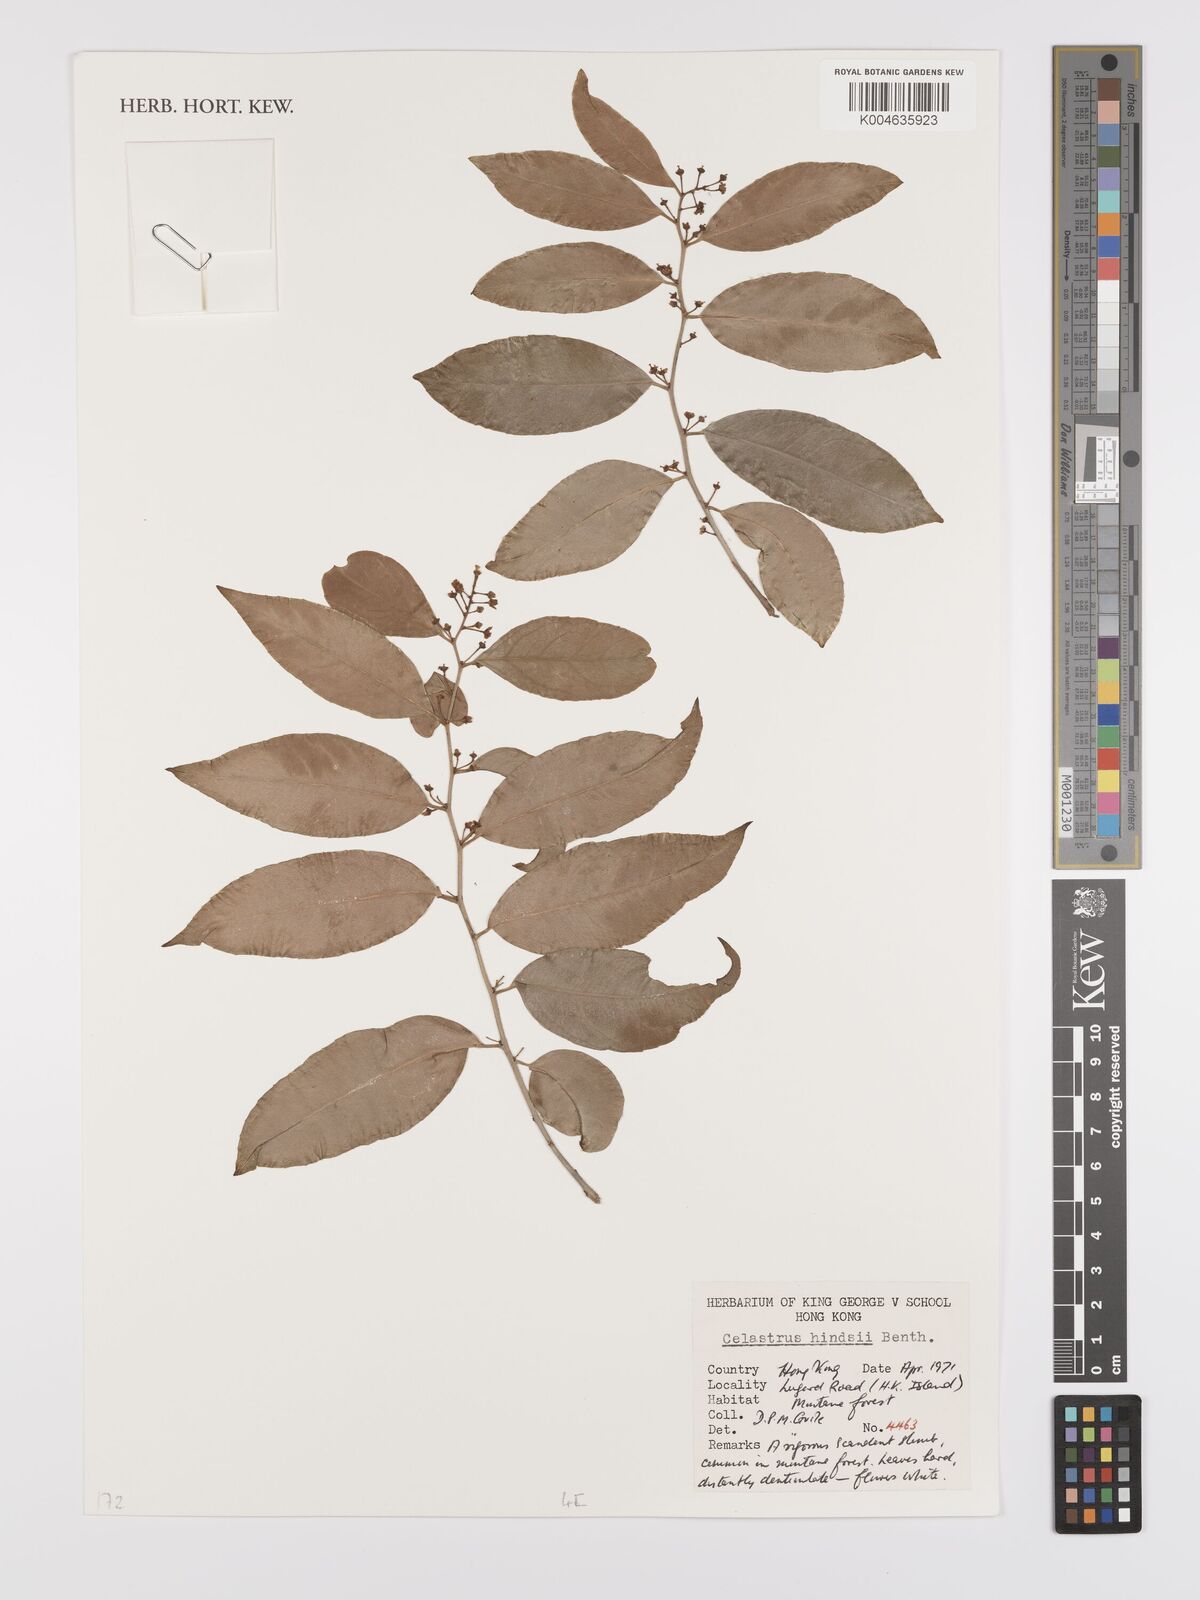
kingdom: Plantae
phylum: Tracheophyta
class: Magnoliopsida
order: Celastrales
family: Celastraceae
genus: Celastrus
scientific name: Celastrus hindsii
